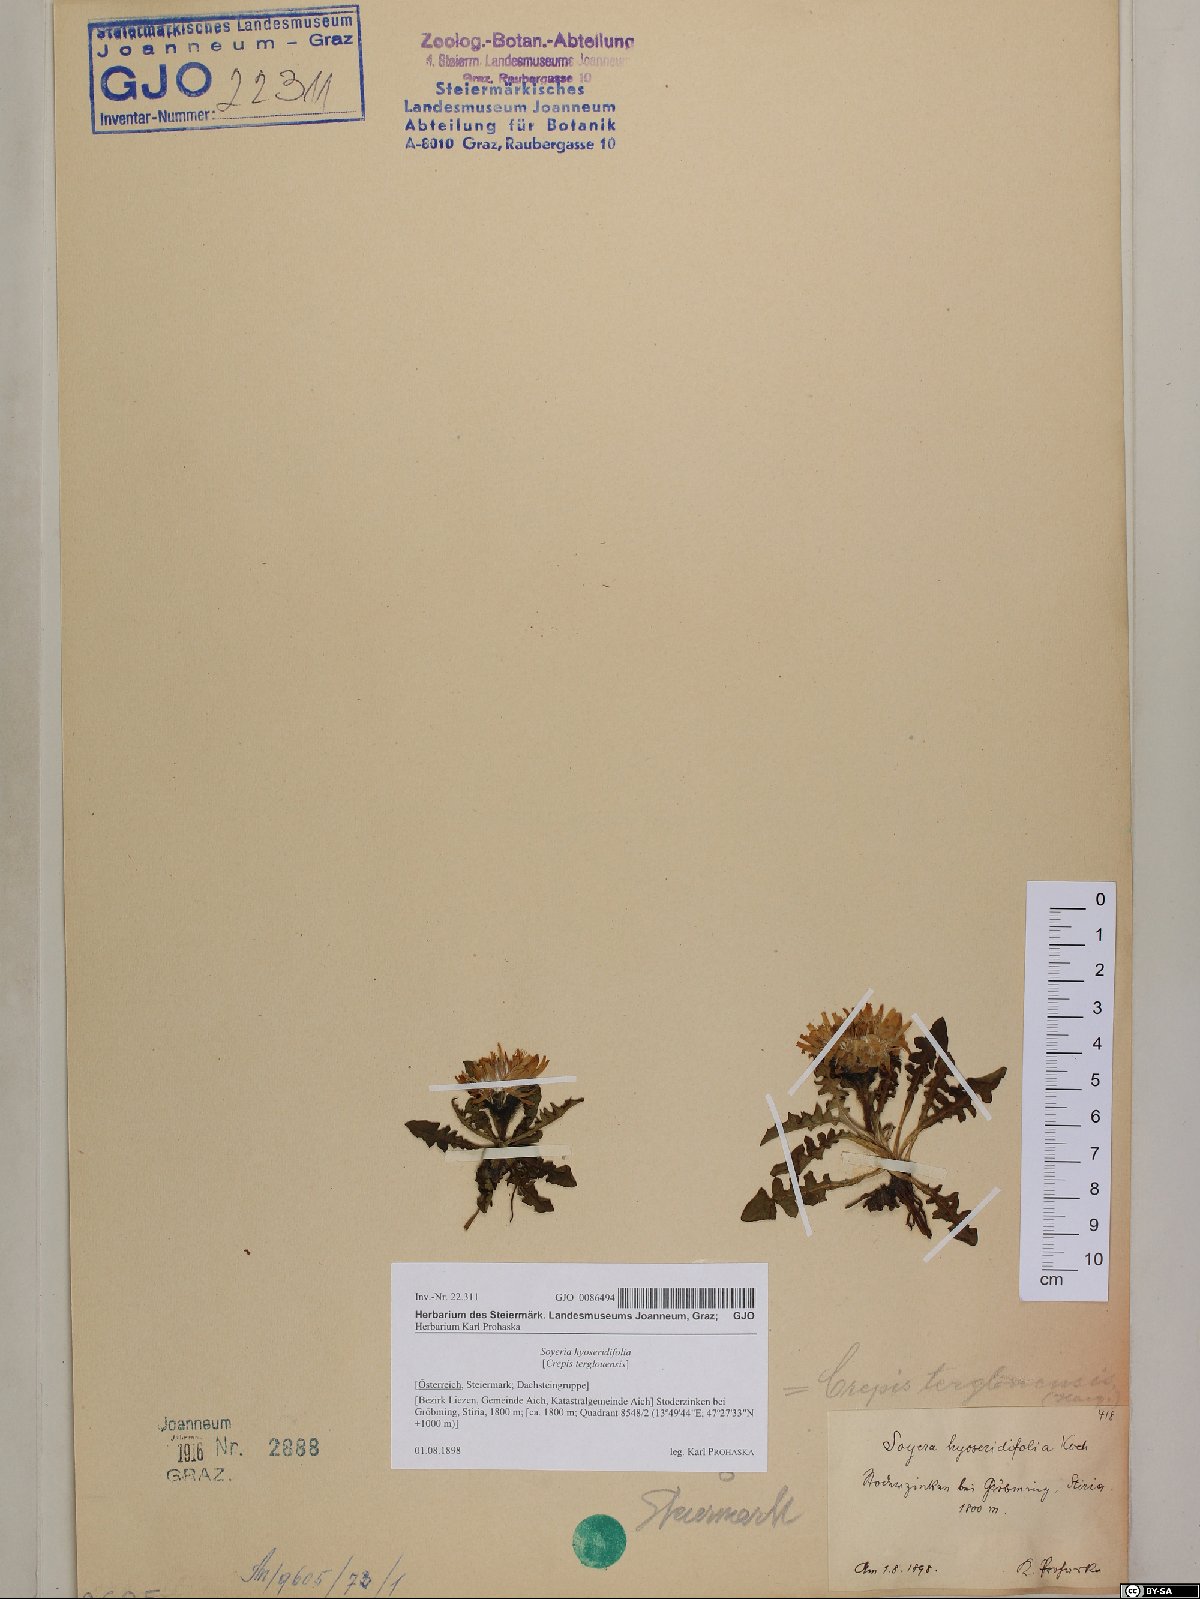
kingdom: Plantae
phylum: Tracheophyta
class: Magnoliopsida
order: Asterales
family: Asteraceae
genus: Crepis
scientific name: Crepis terglouensis
